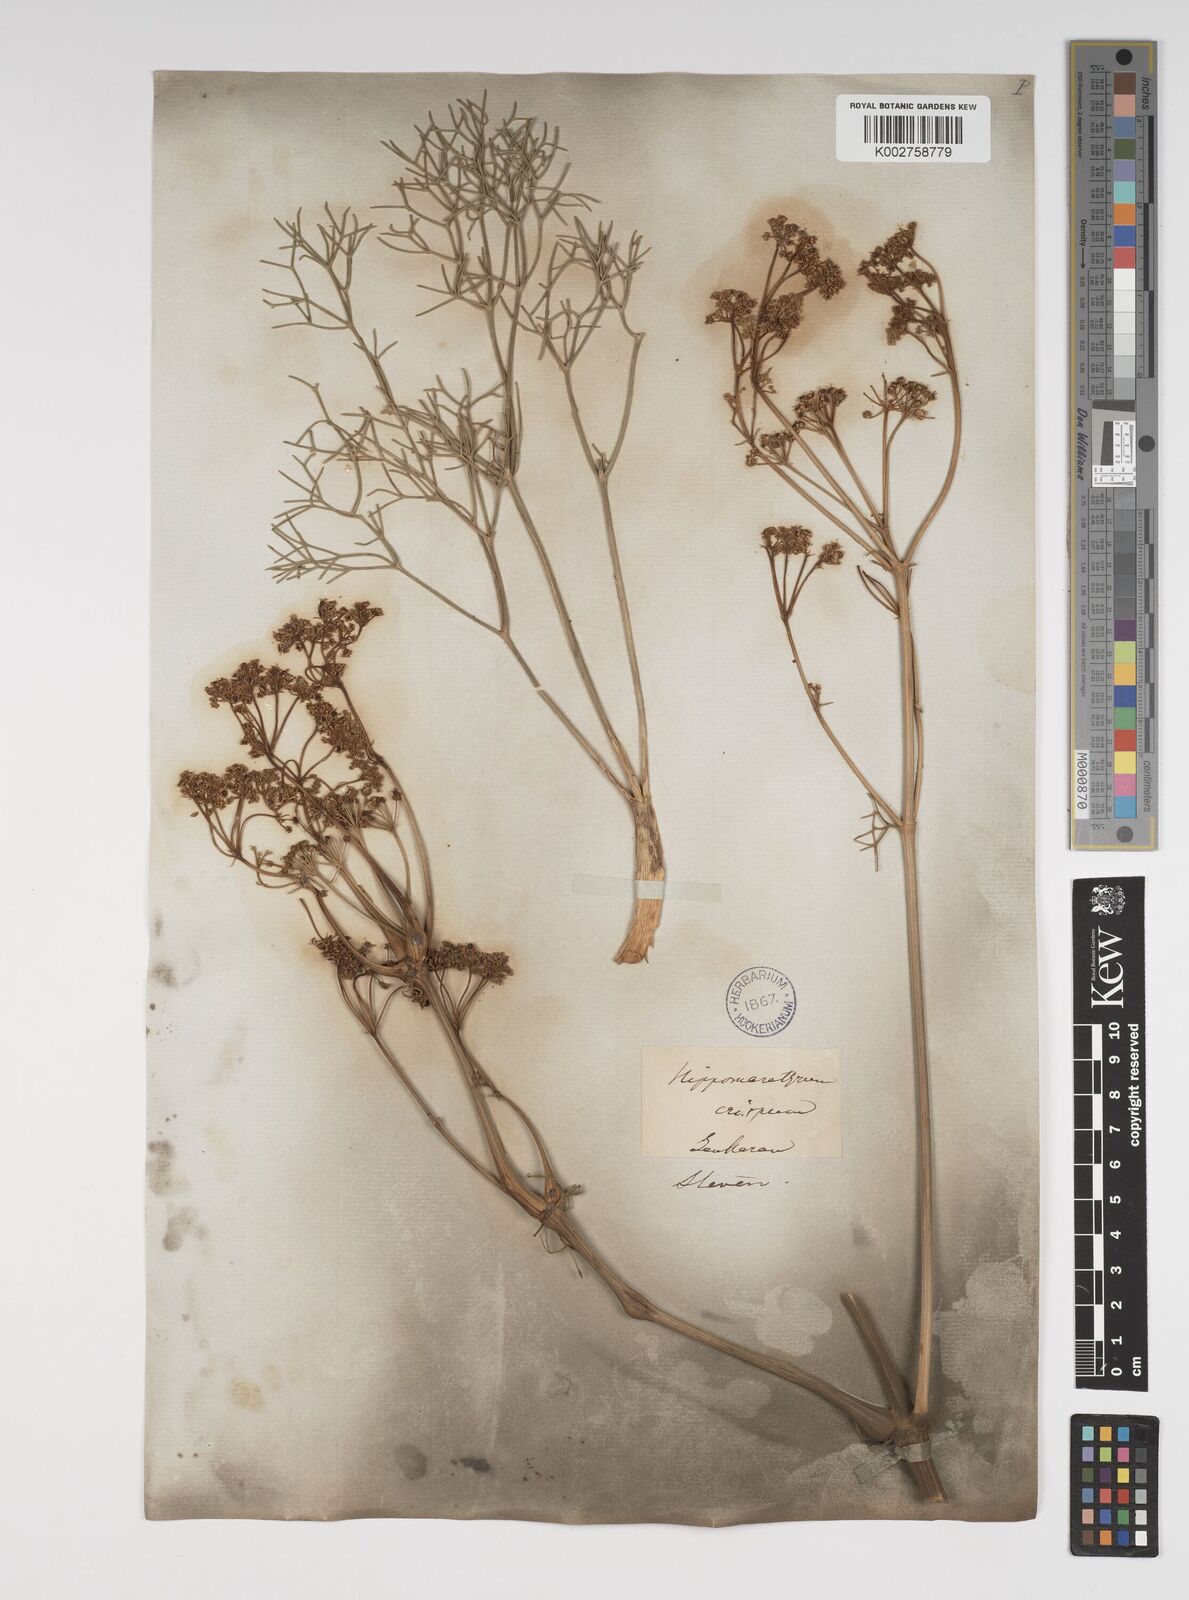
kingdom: Plantae
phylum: Tracheophyta
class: Magnoliopsida
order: Apiales
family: Apiaceae
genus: Bilacunaria
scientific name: Bilacunaria microcarpa
